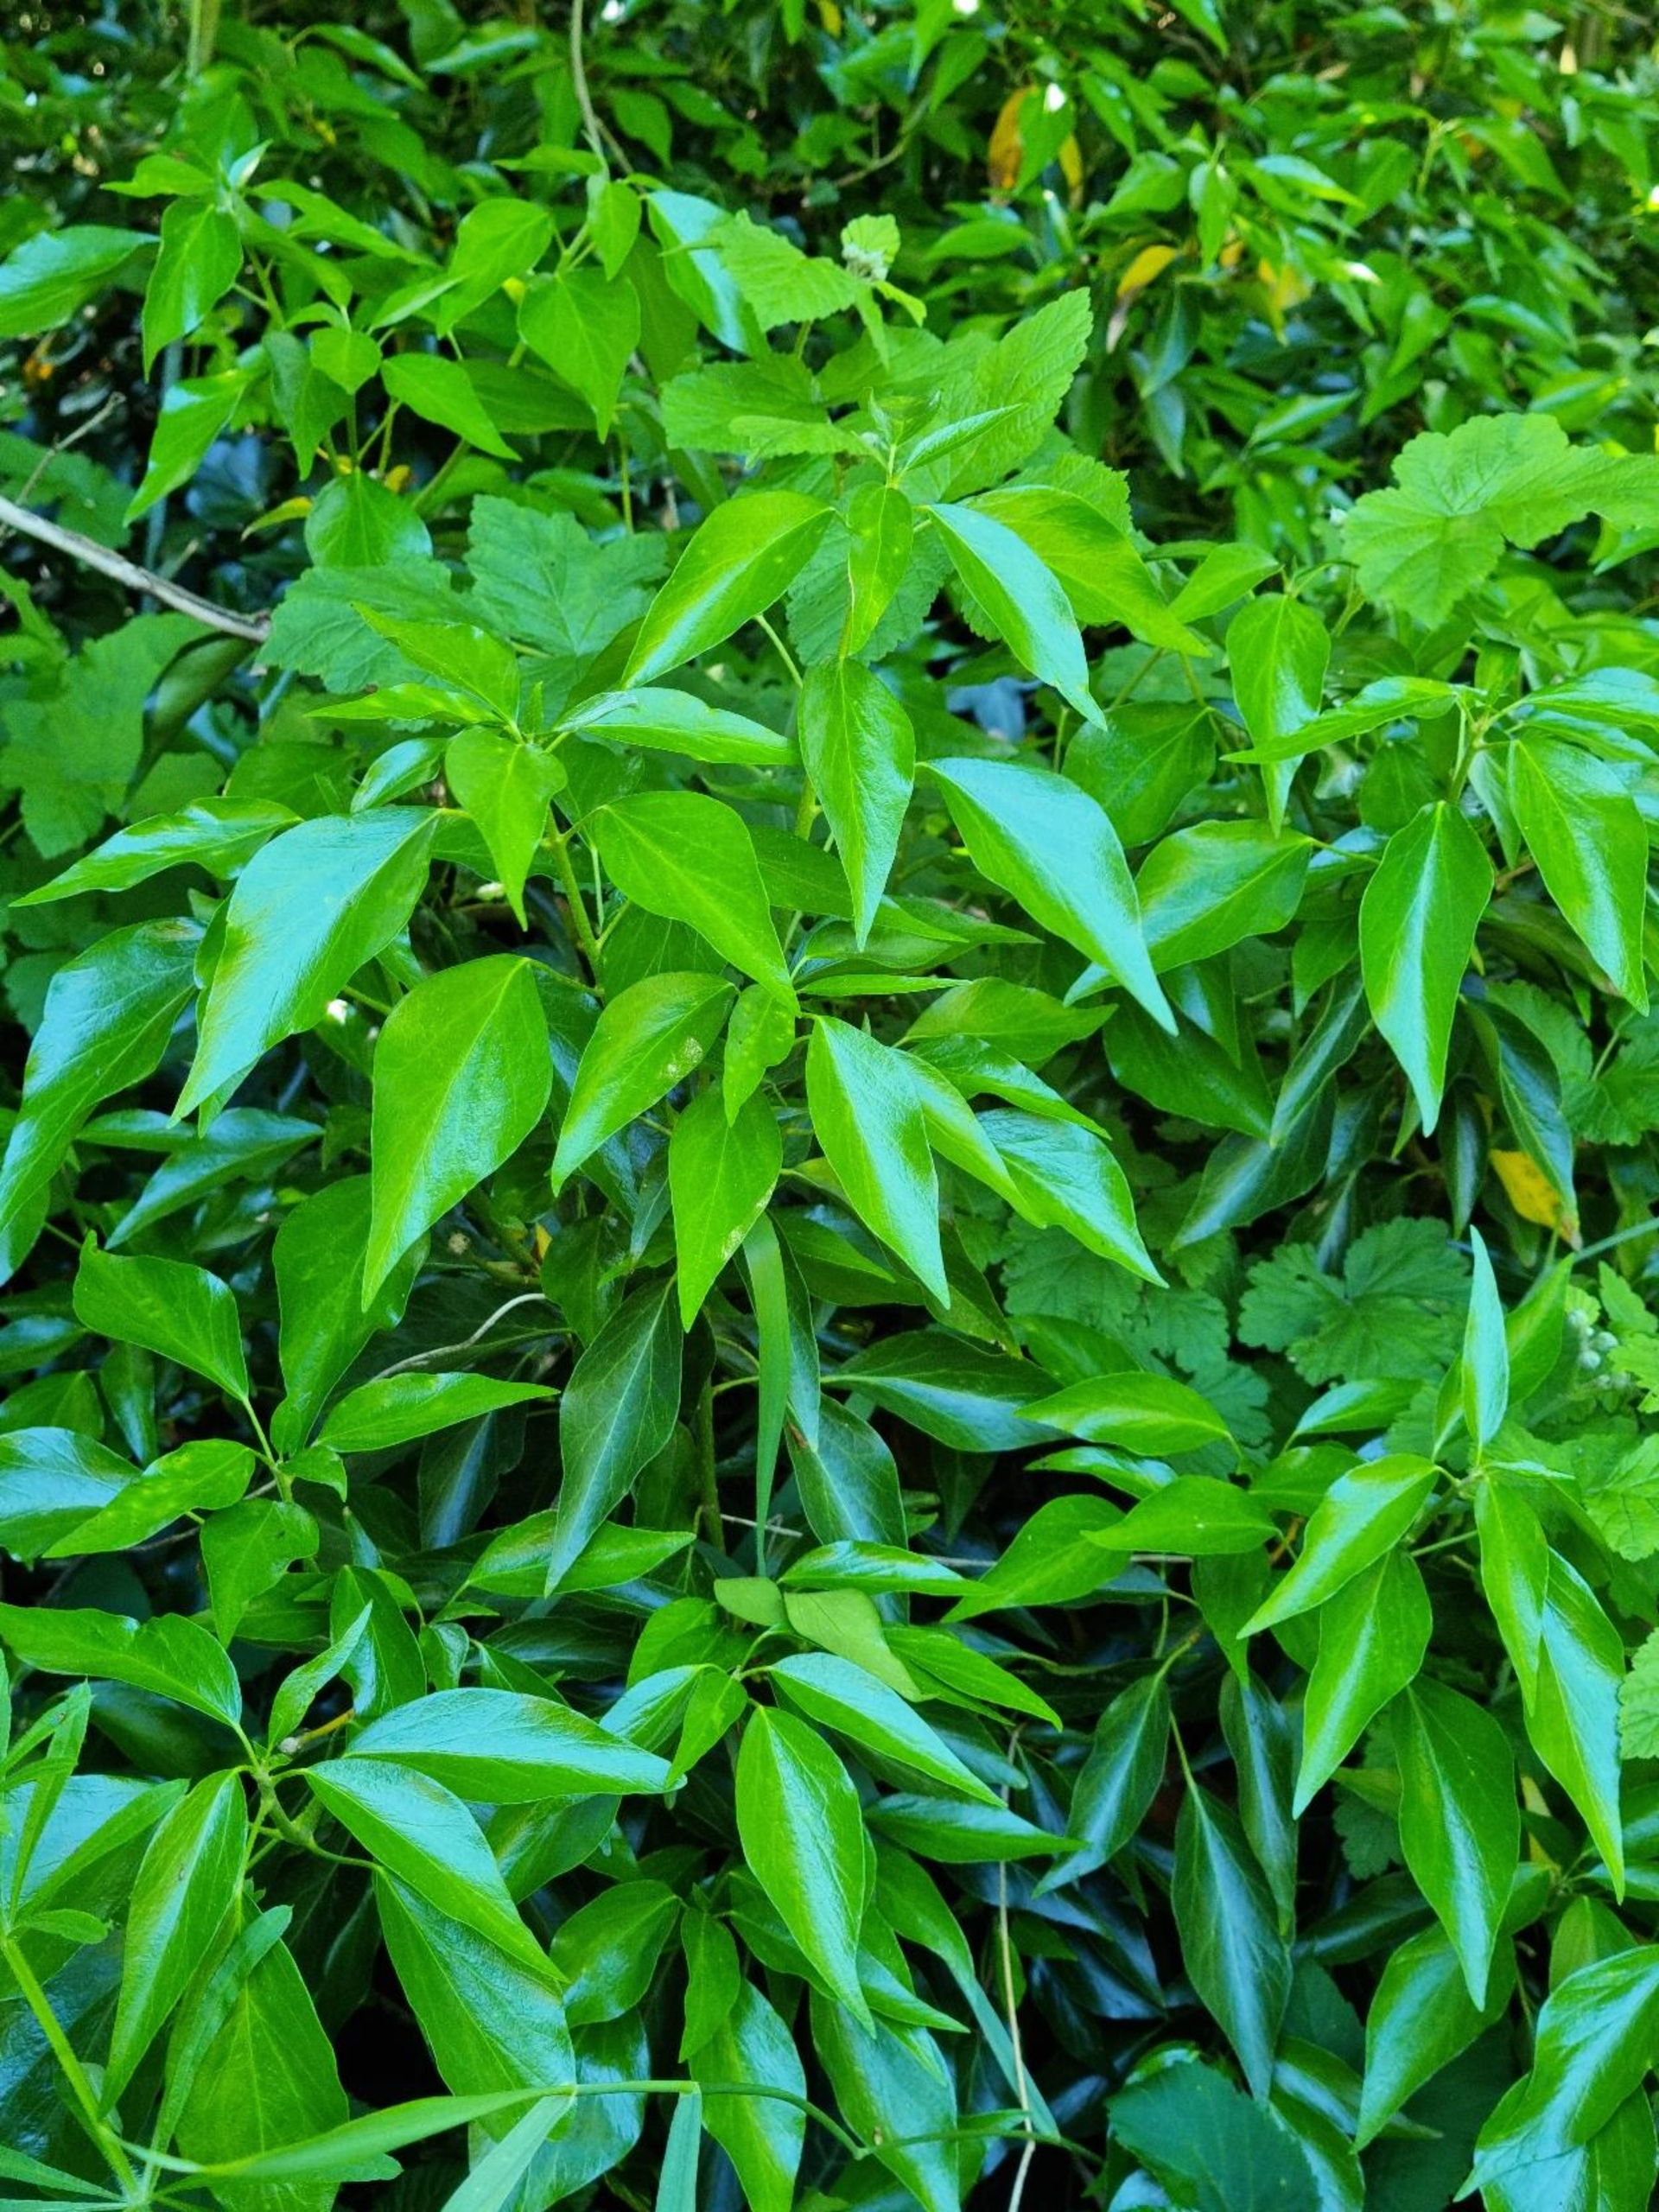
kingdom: Plantae
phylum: Tracheophyta
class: Magnoliopsida
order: Apiales
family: Araliaceae
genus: Hedera
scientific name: Hedera helix
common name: Vedbend
